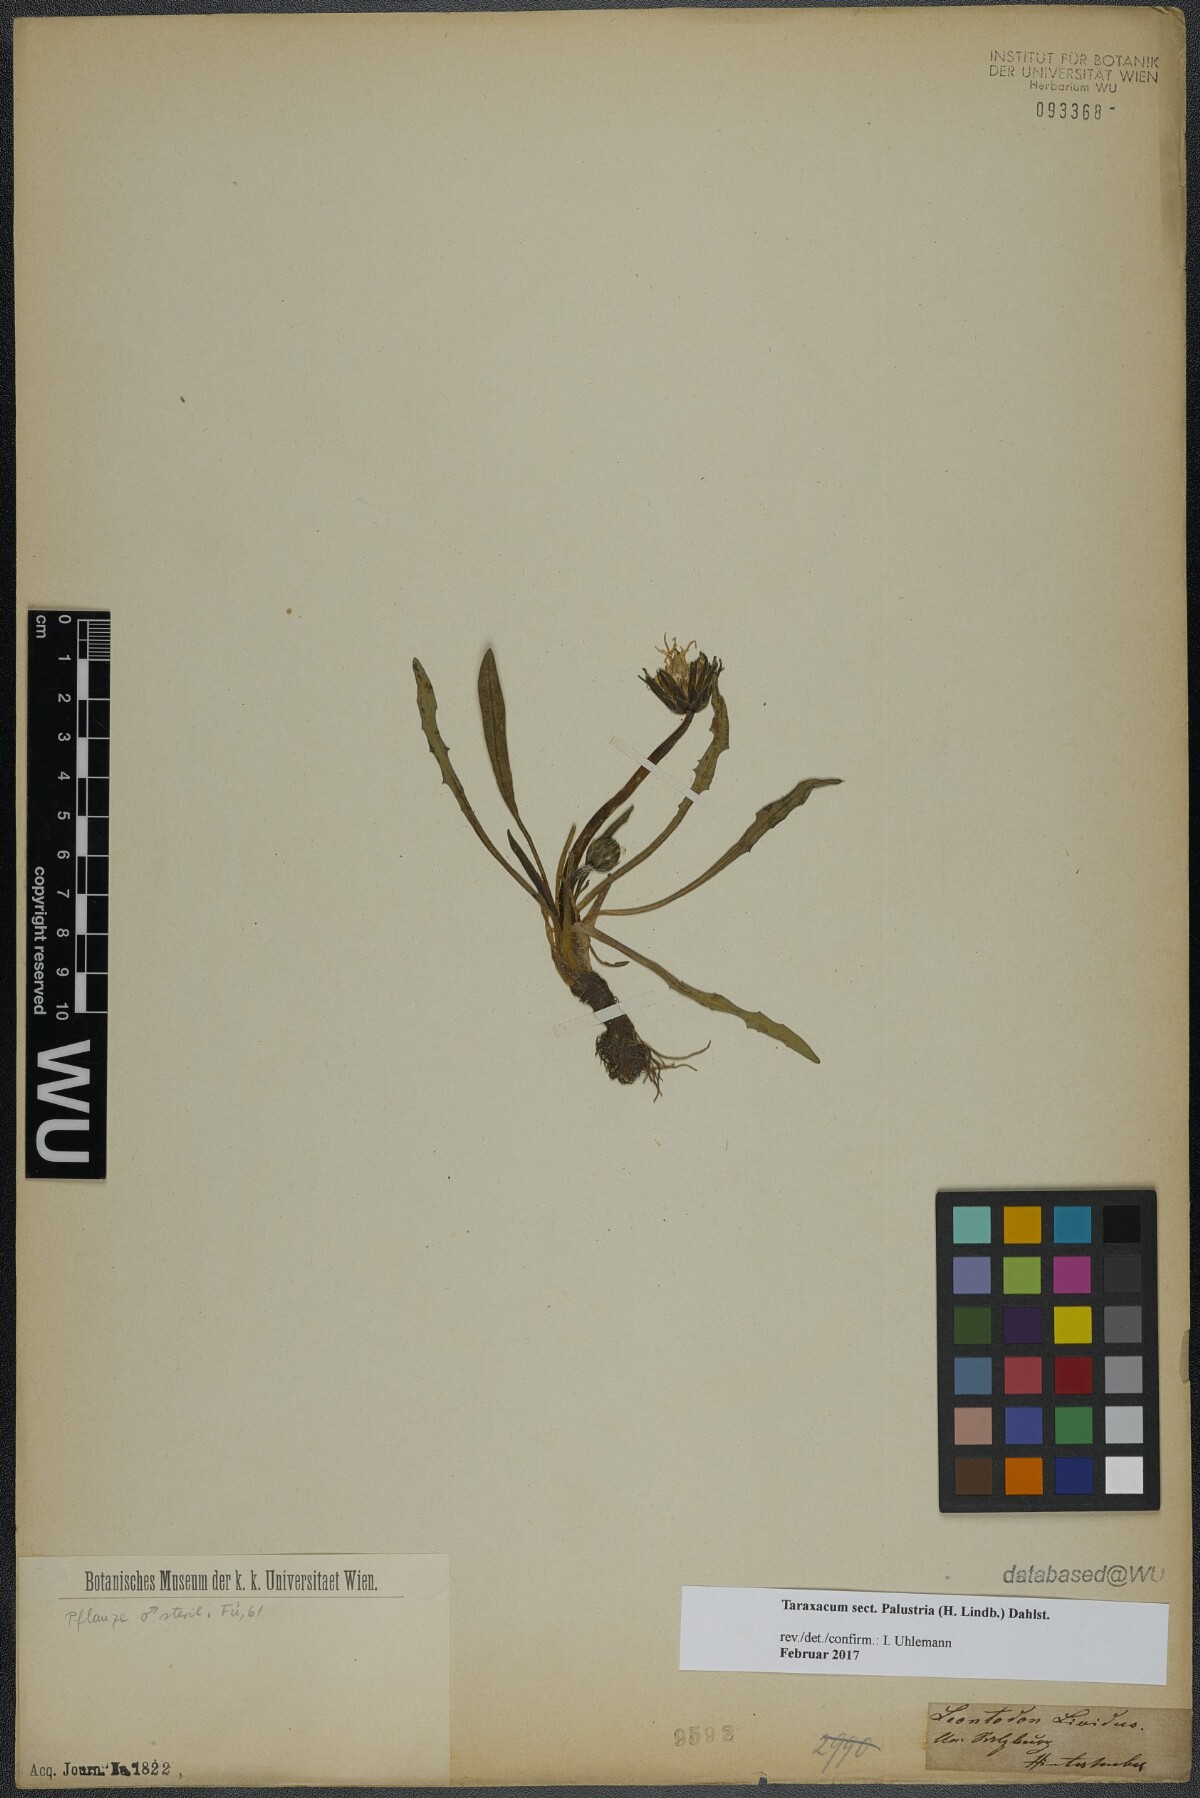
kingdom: Plantae
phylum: Tracheophyta
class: Magnoliopsida
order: Asterales
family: Asteraceae
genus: Taraxacum
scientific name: Taraxacum
